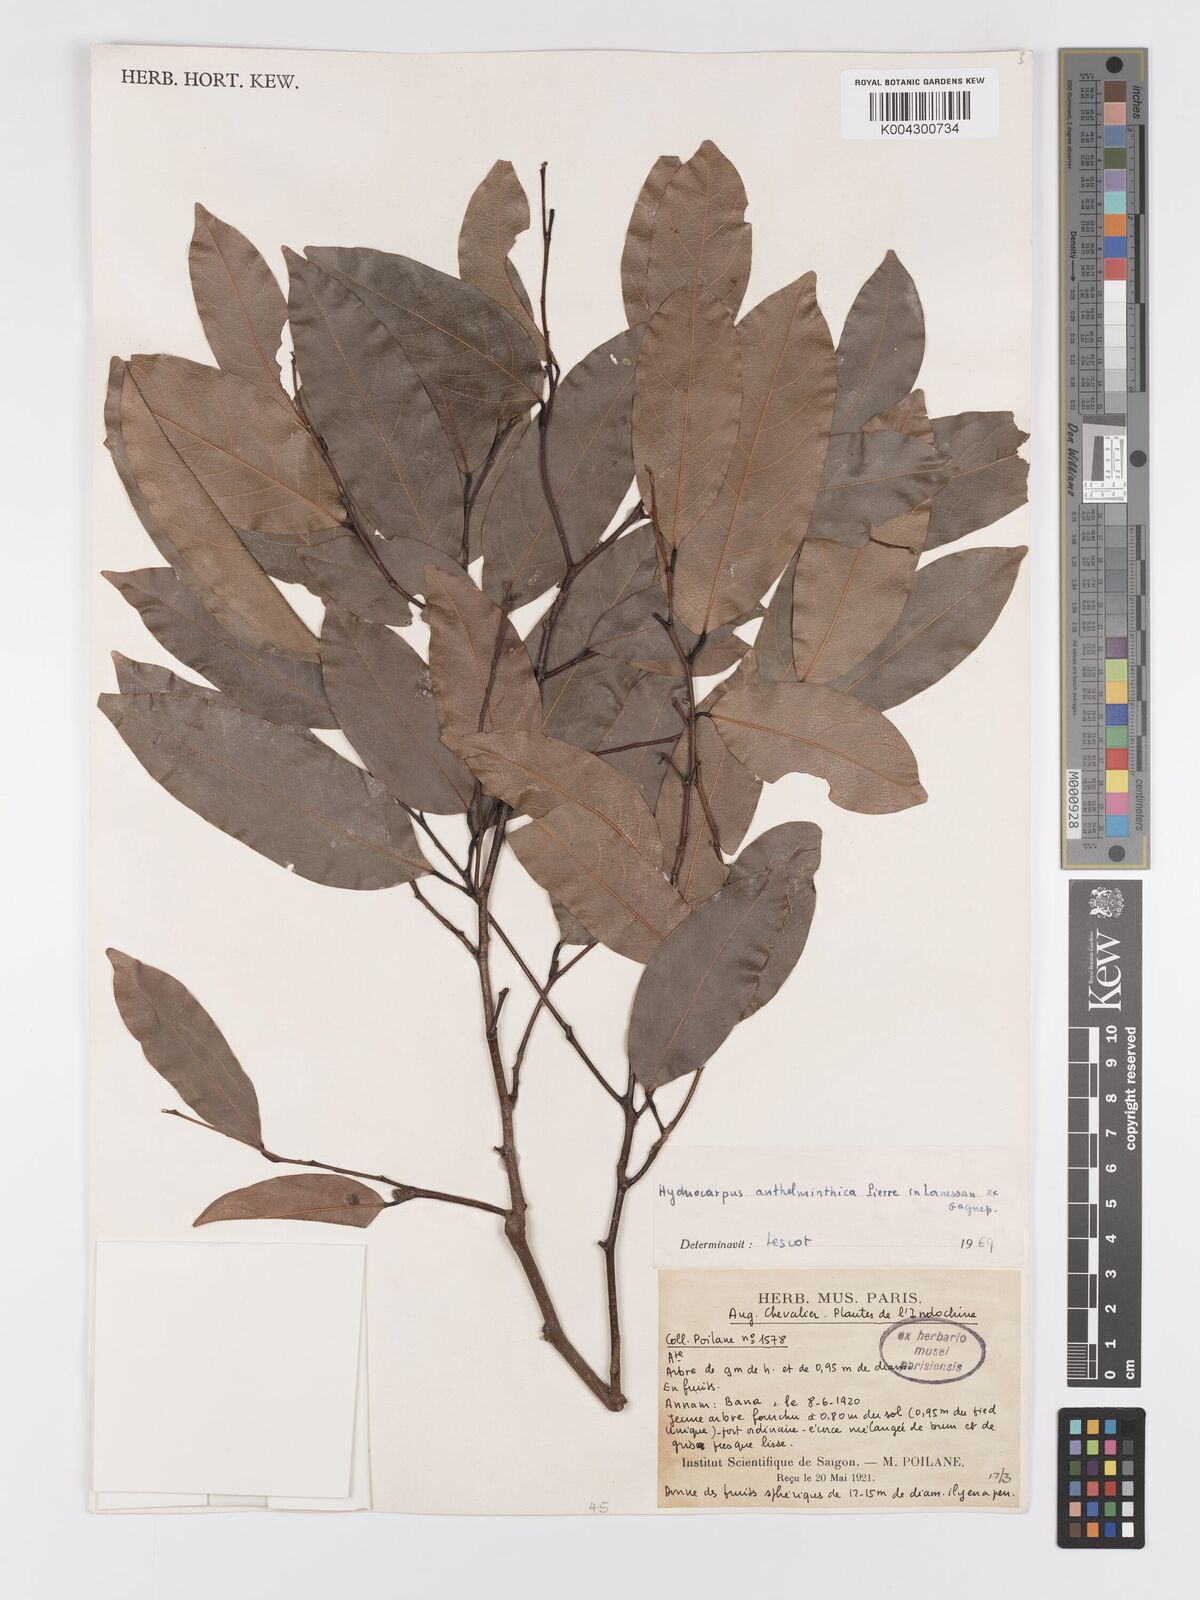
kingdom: Plantae
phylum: Tracheophyta
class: Magnoliopsida
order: Malpighiales
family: Achariaceae
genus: Hydnocarpus
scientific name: Hydnocarpus
